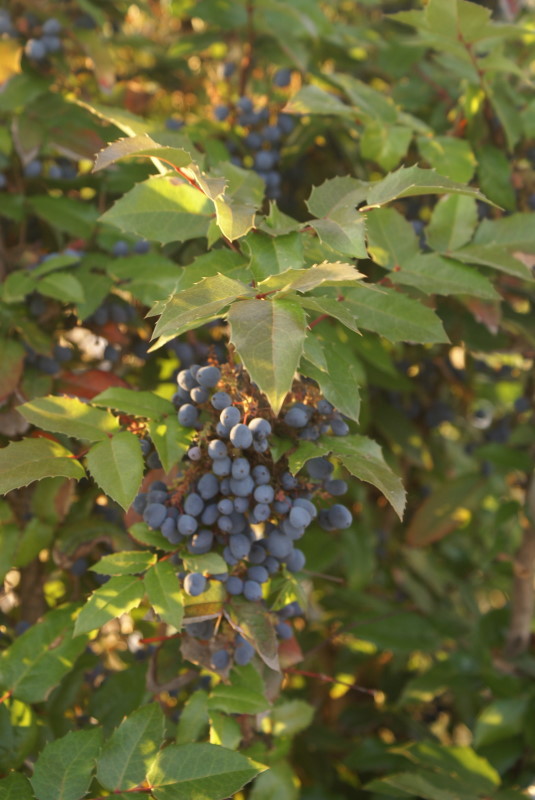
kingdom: Plantae
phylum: Tracheophyta
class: Magnoliopsida
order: Ranunculales
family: Berberidaceae
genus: Mahonia
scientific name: Mahonia aquifolium
